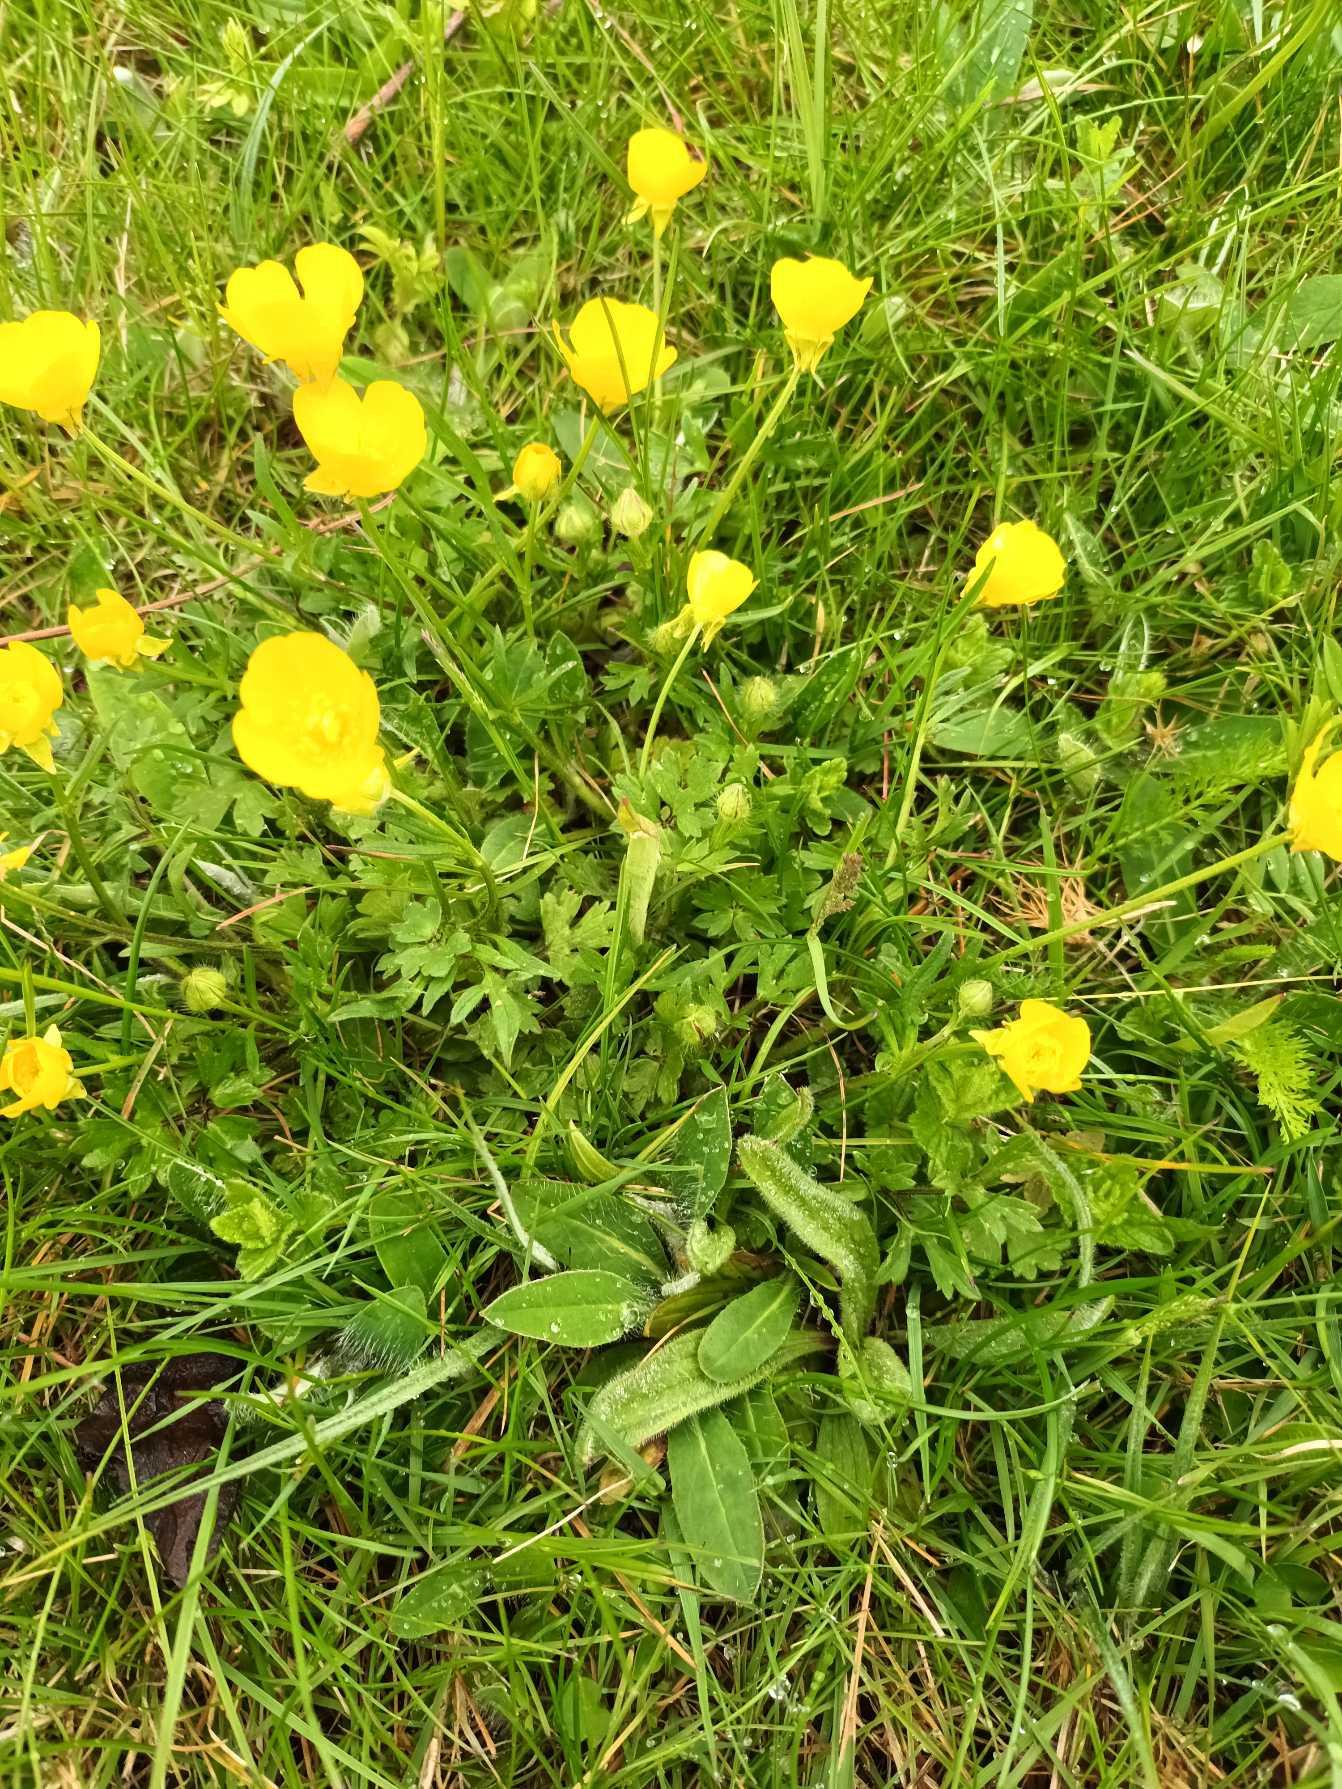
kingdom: Plantae
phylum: Tracheophyta
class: Magnoliopsida
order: Ranunculales
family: Ranunculaceae
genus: Ranunculus
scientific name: Ranunculus bulbosus
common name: Knold-ranunkel
